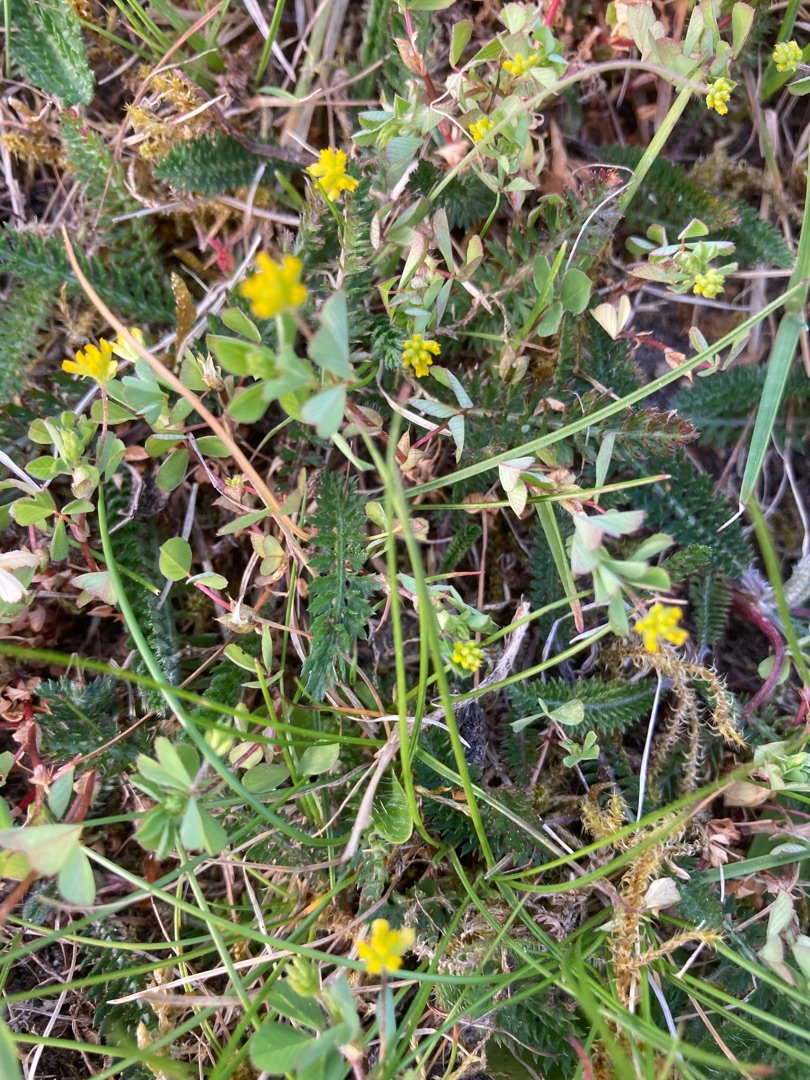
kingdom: Plantae
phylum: Tracheophyta
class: Magnoliopsida
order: Fabales
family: Fabaceae
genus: Trifolium
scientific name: Trifolium dubium
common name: Fin kløver
